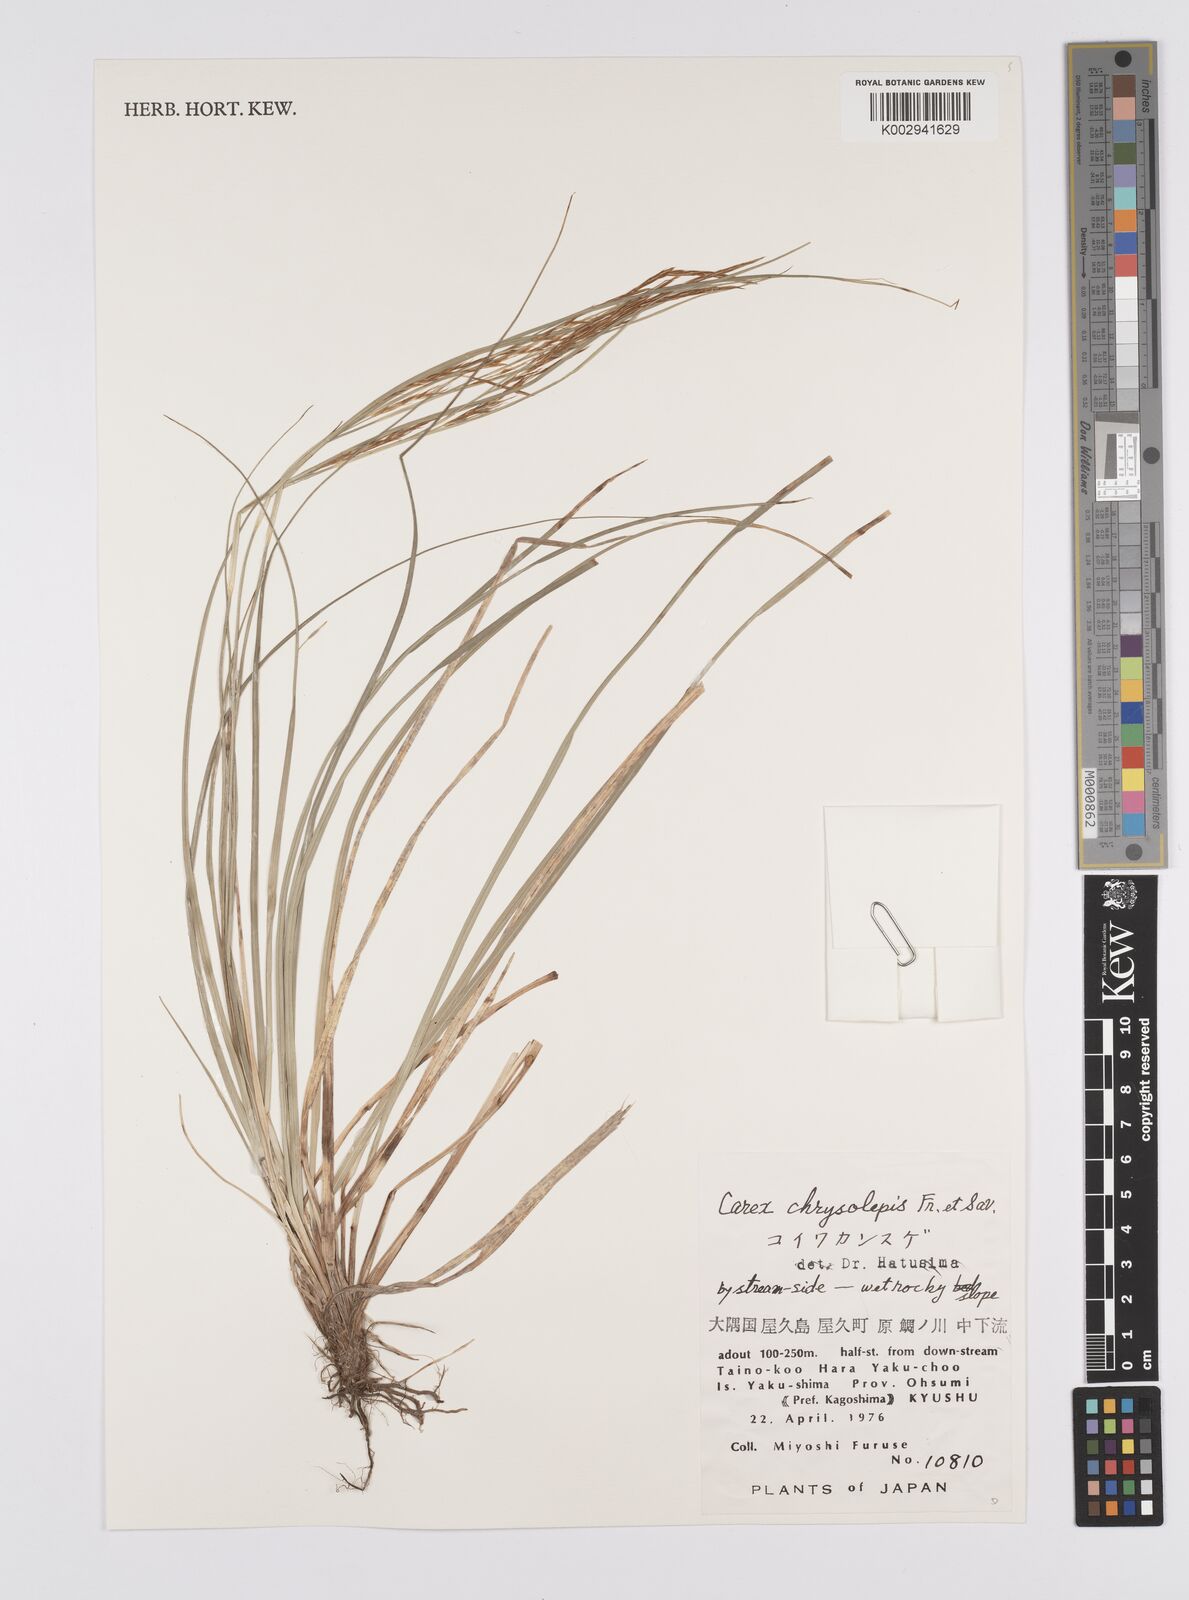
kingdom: Plantae
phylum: Tracheophyta
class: Liliopsida
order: Poales
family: Cyperaceae
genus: Carex
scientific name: Carex chrysolepis
